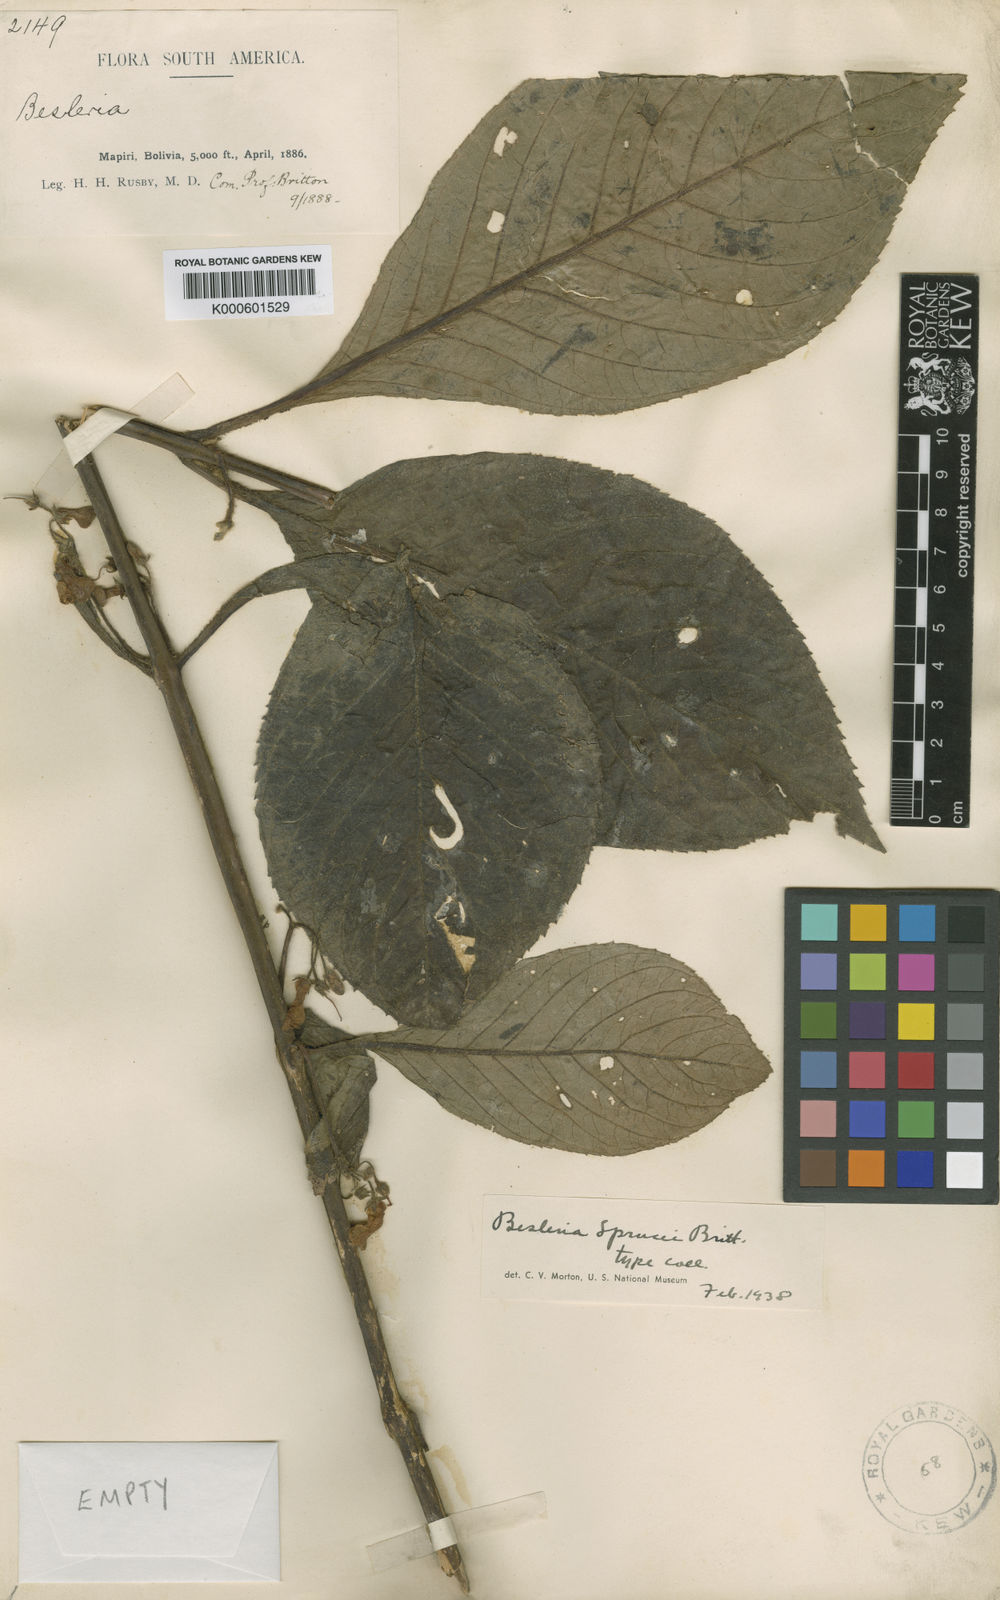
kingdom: Plantae
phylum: Tracheophyta
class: Magnoliopsida
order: Lamiales
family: Gesneriaceae
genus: Besleria
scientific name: Besleria sprucei
